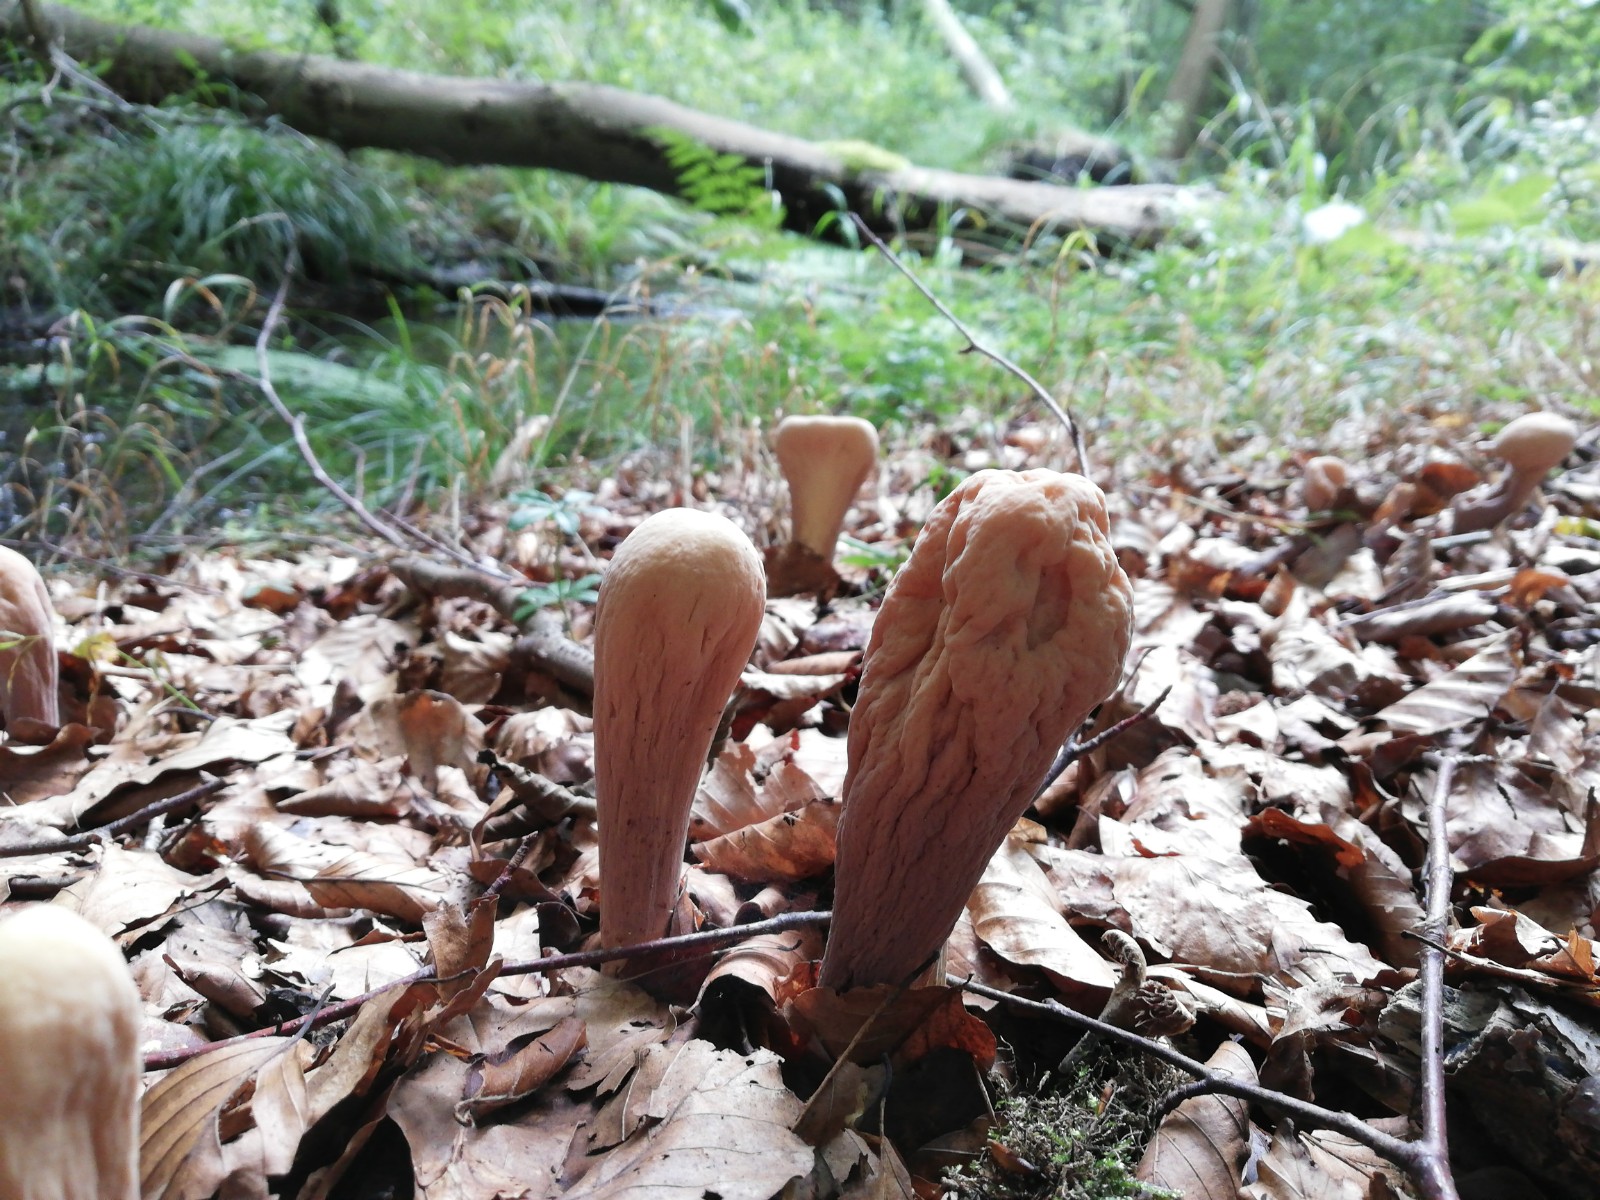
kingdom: Fungi
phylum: Basidiomycota
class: Agaricomycetes
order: Gomphales
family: Clavariadelphaceae
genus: Clavariadelphus
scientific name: Clavariadelphus pistillaris
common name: herkules-kæmpekølle
